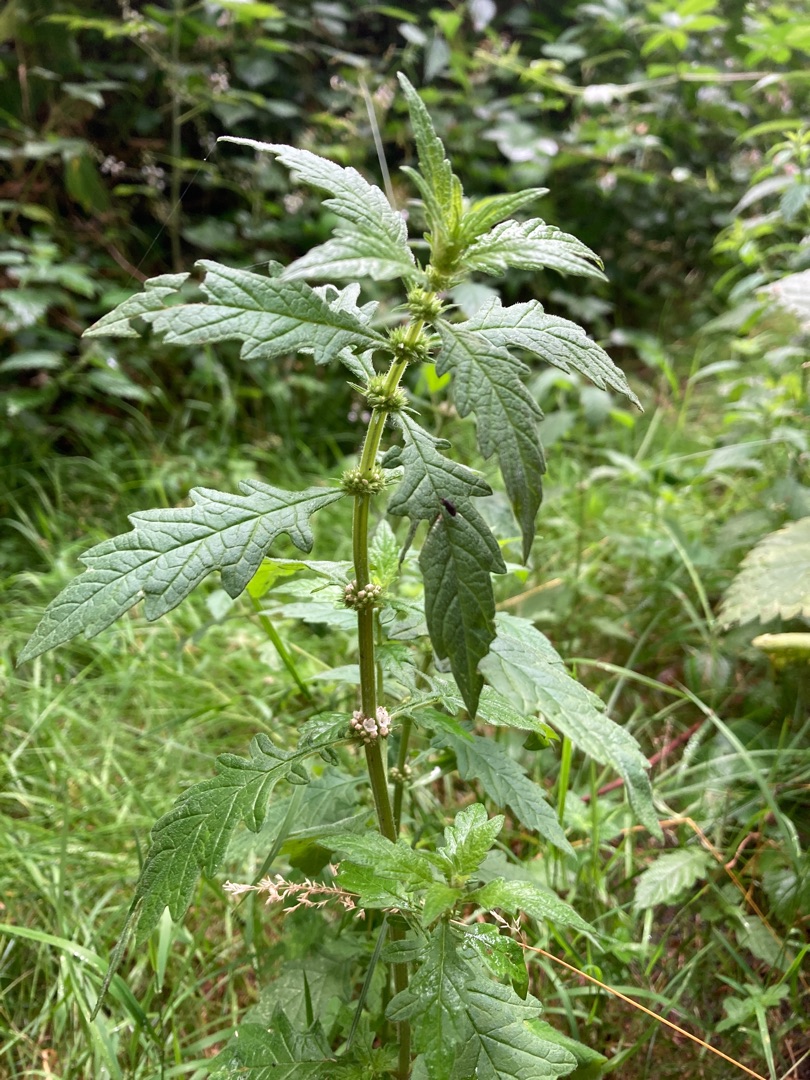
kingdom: Plantae
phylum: Tracheophyta
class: Magnoliopsida
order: Lamiales
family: Lamiaceae
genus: Lycopus
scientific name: Lycopus europaeus
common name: Sværtevæld
